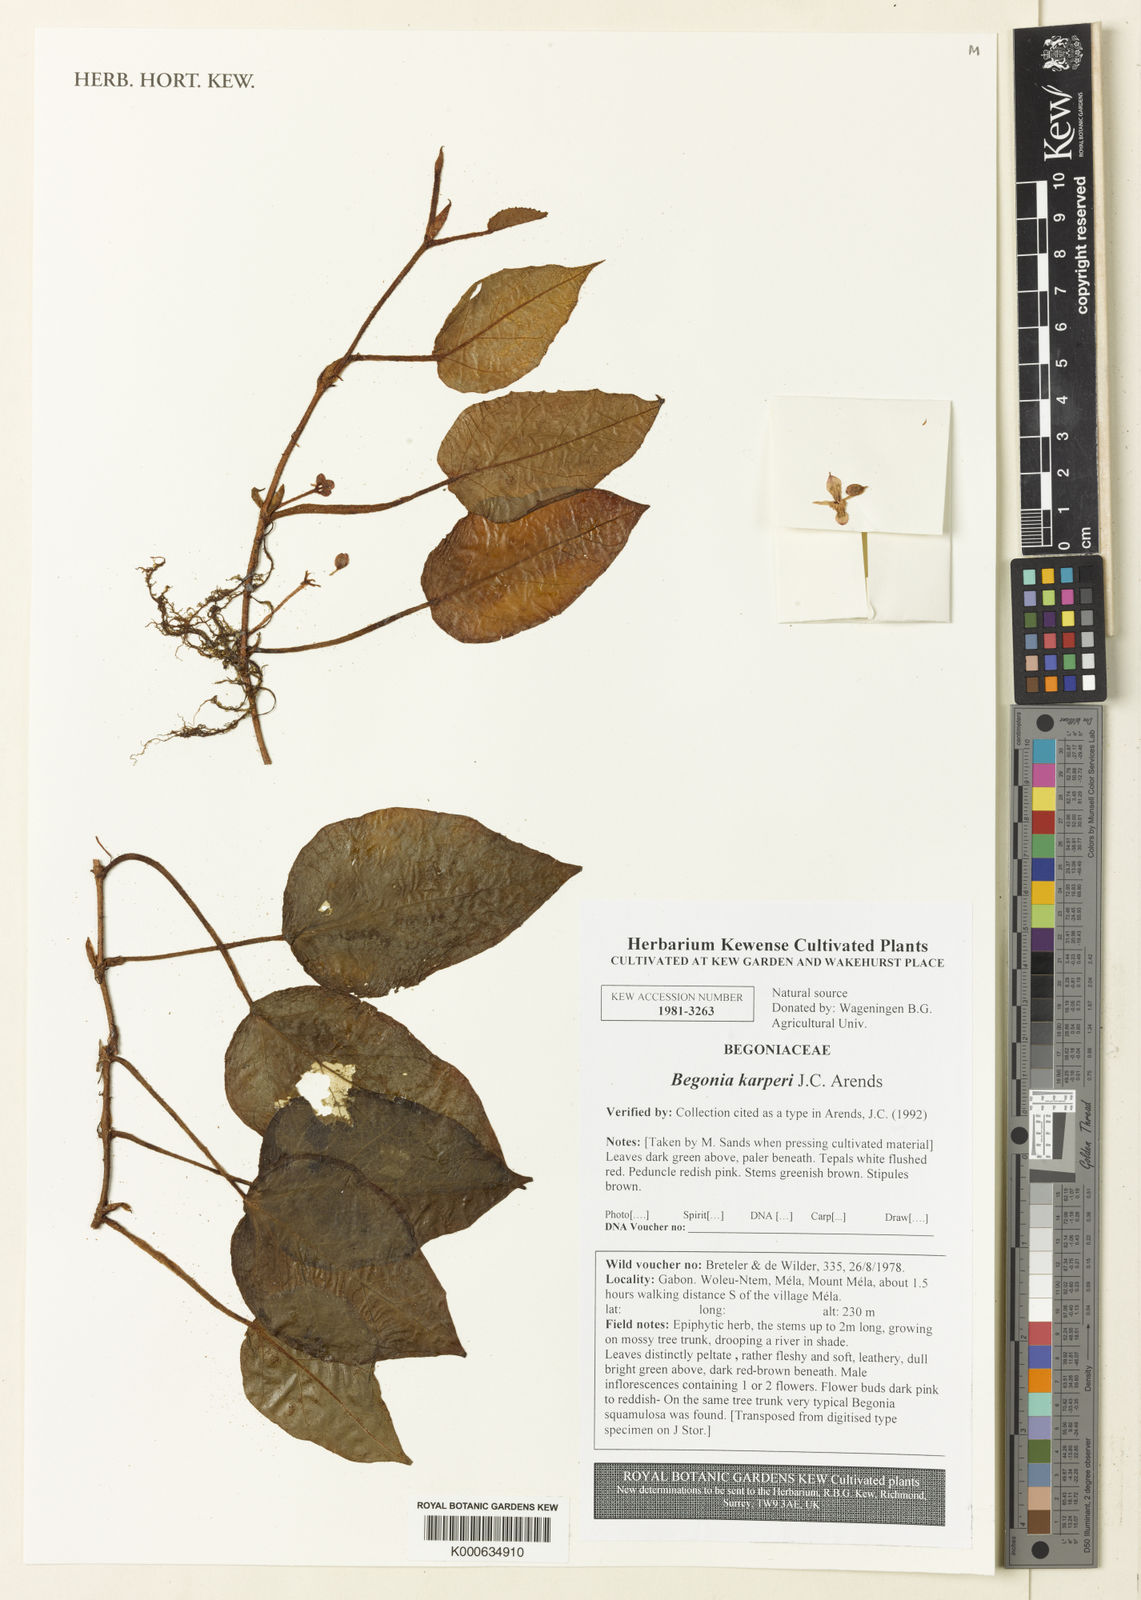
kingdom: Plantae
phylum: Tracheophyta
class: Magnoliopsida
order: Cucurbitales
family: Begoniaceae
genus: Begonia
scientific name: Begonia karperi
